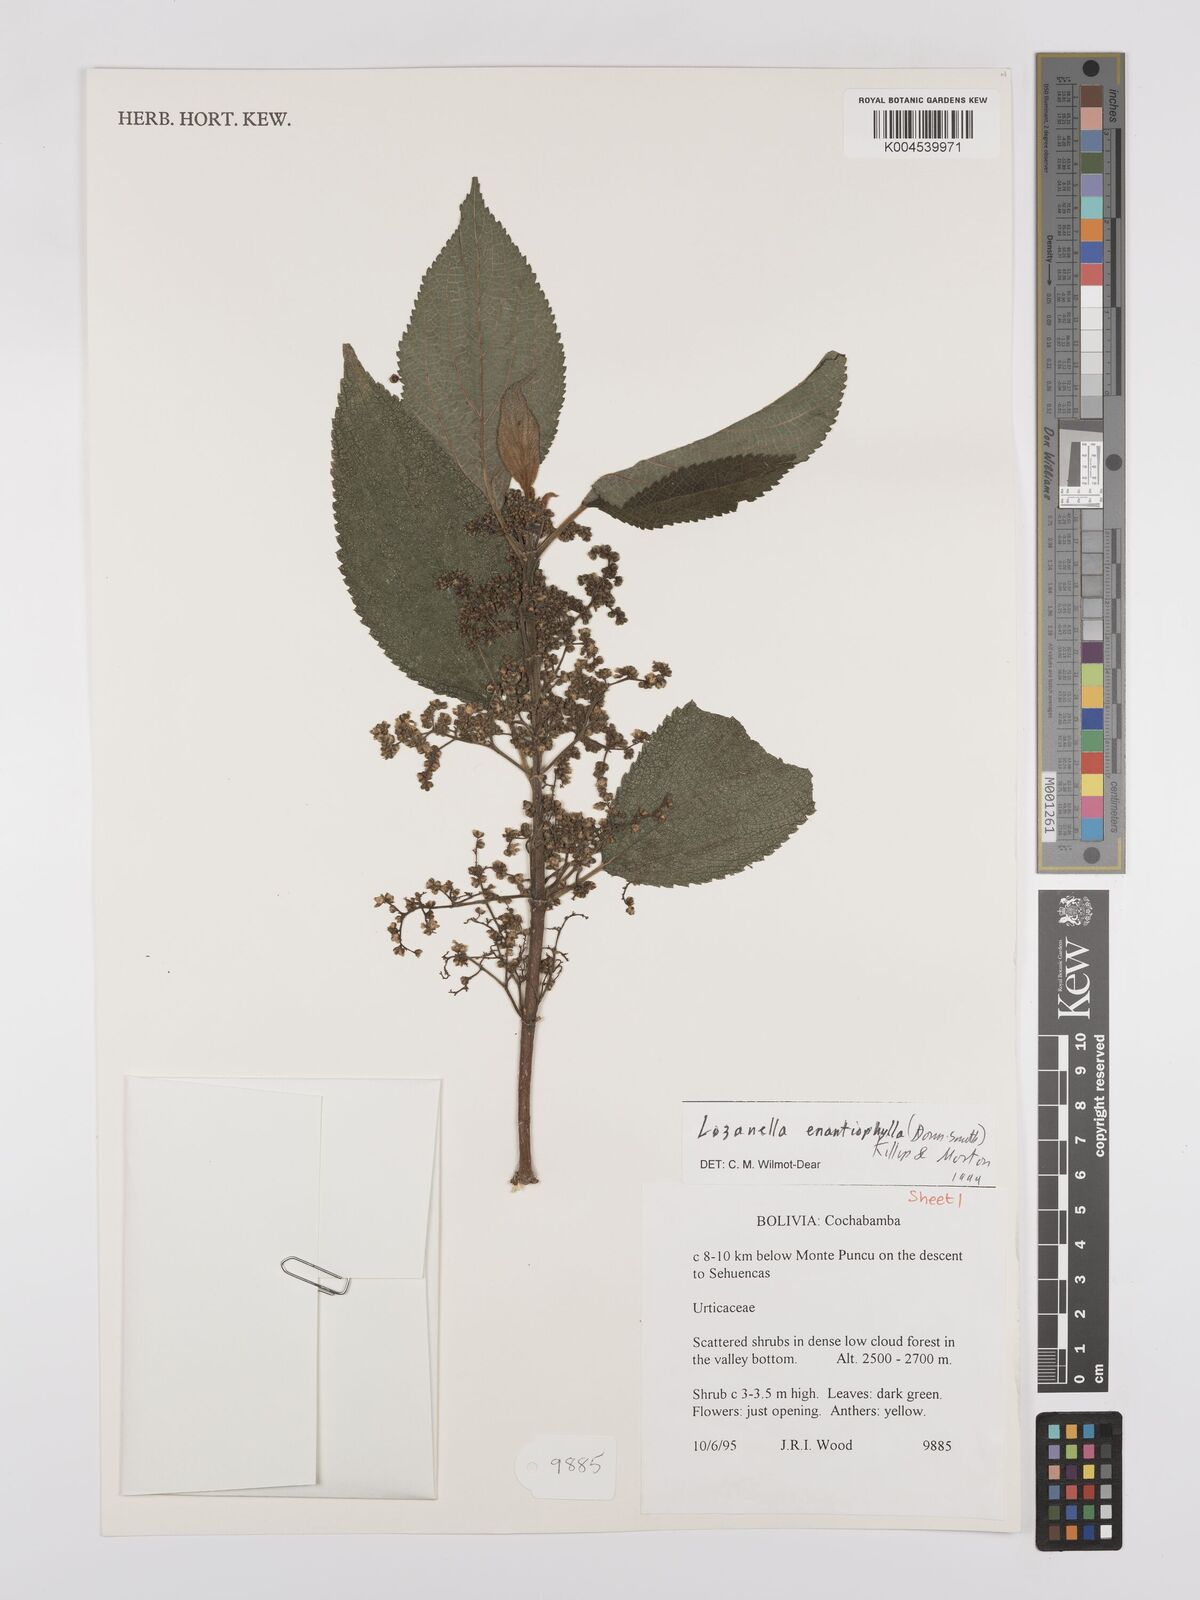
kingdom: Plantae
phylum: Tracheophyta
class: Magnoliopsida
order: Rosales
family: Cannabaceae
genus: Lozanella
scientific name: Lozanella enantiophylla
